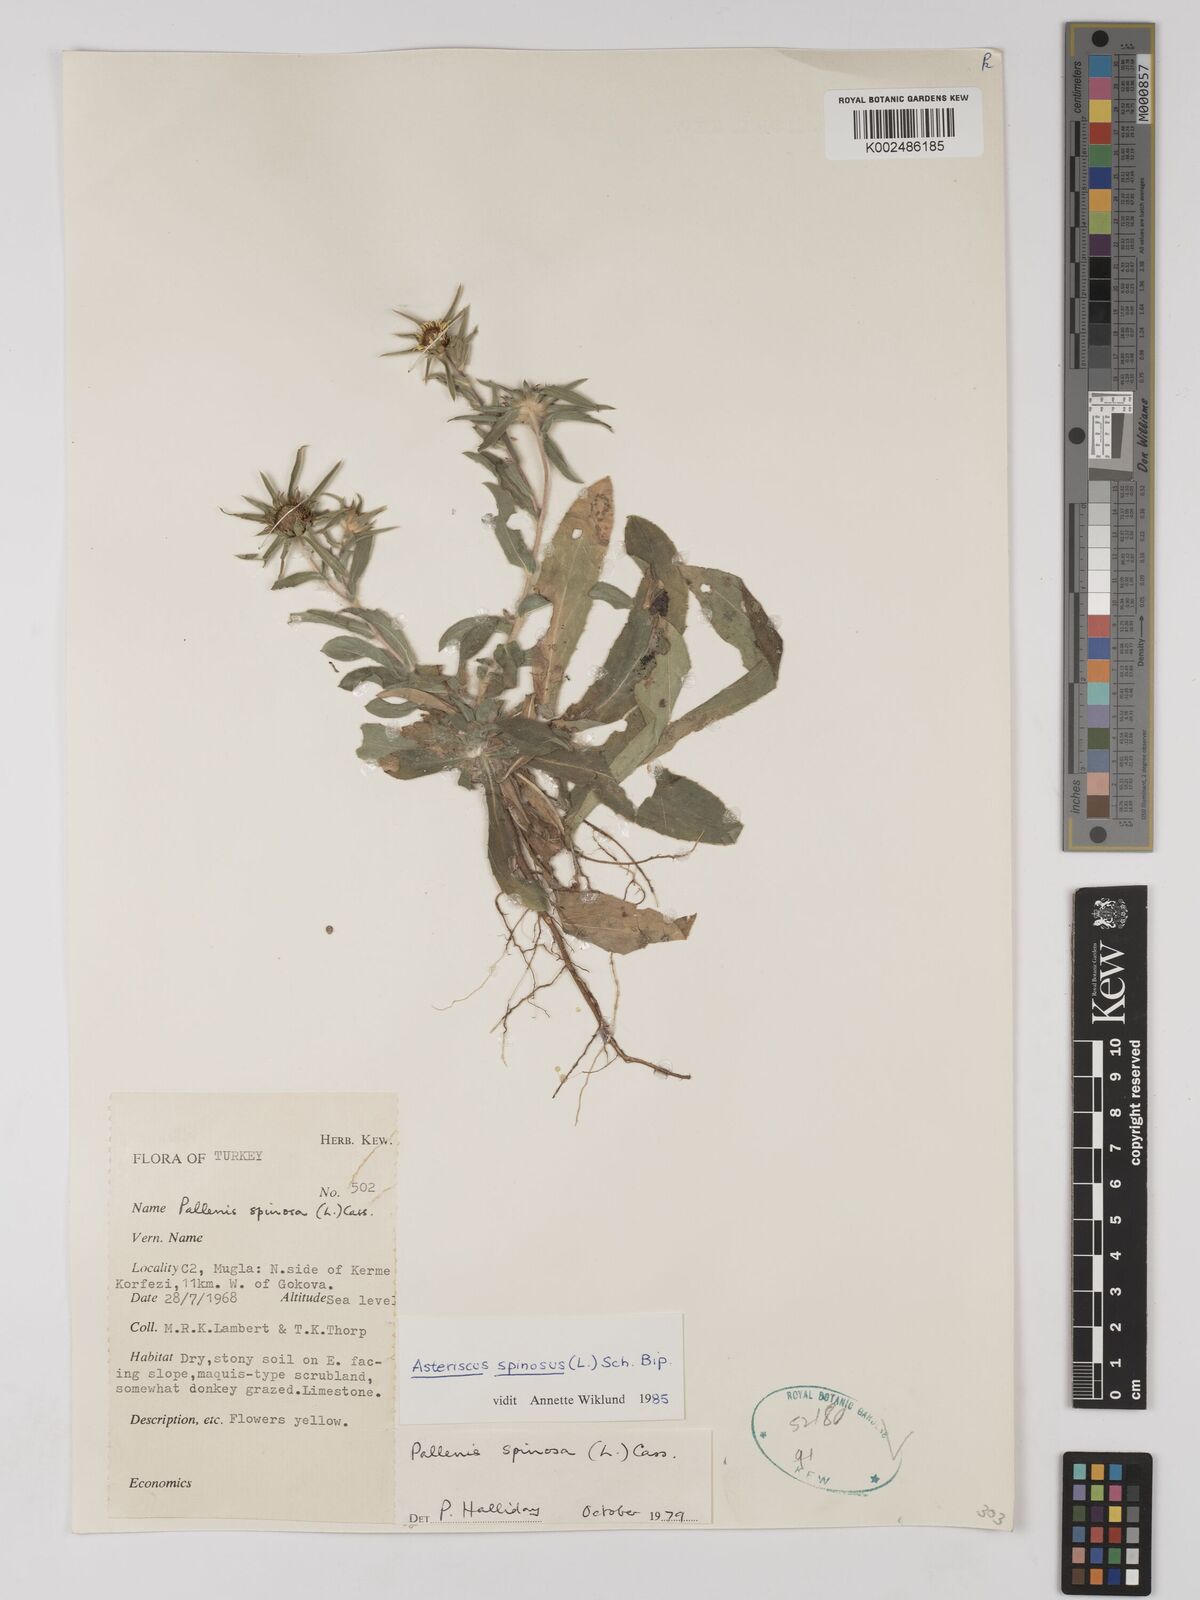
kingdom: Plantae
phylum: Tracheophyta
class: Magnoliopsida
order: Asterales
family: Asteraceae
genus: Pallenis
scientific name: Pallenis spinosa
